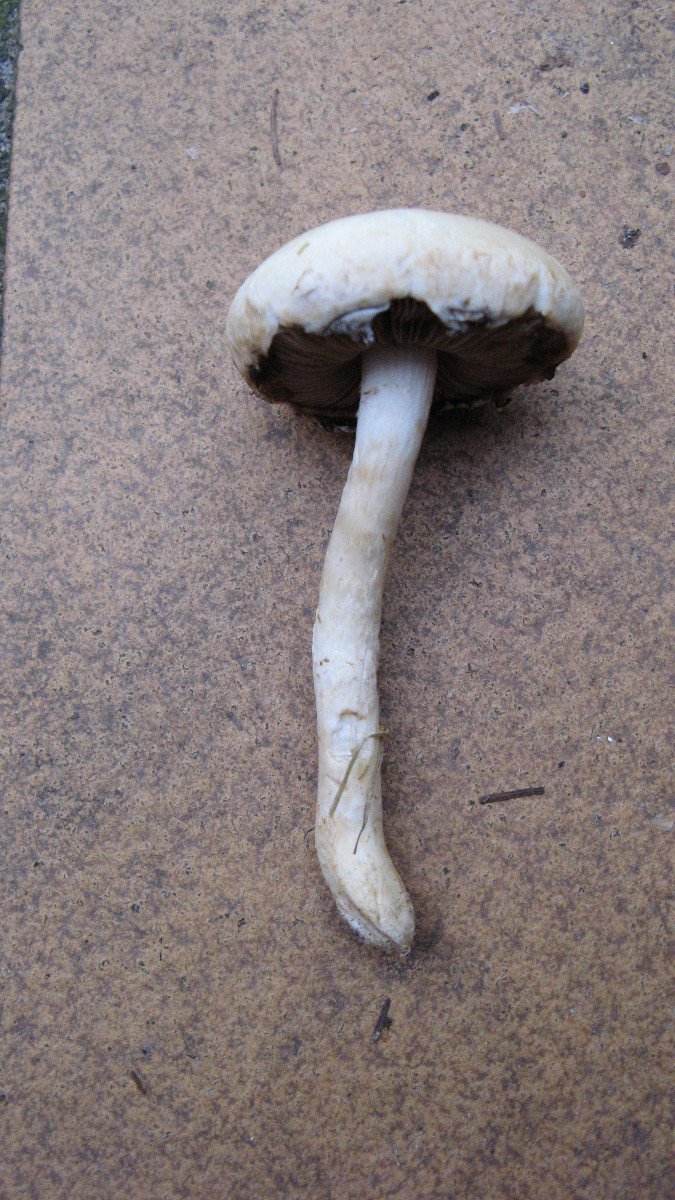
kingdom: Fungi
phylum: Basidiomycota
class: Agaricomycetes
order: Agaricales
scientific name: Agaricales
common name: champignonordenen
